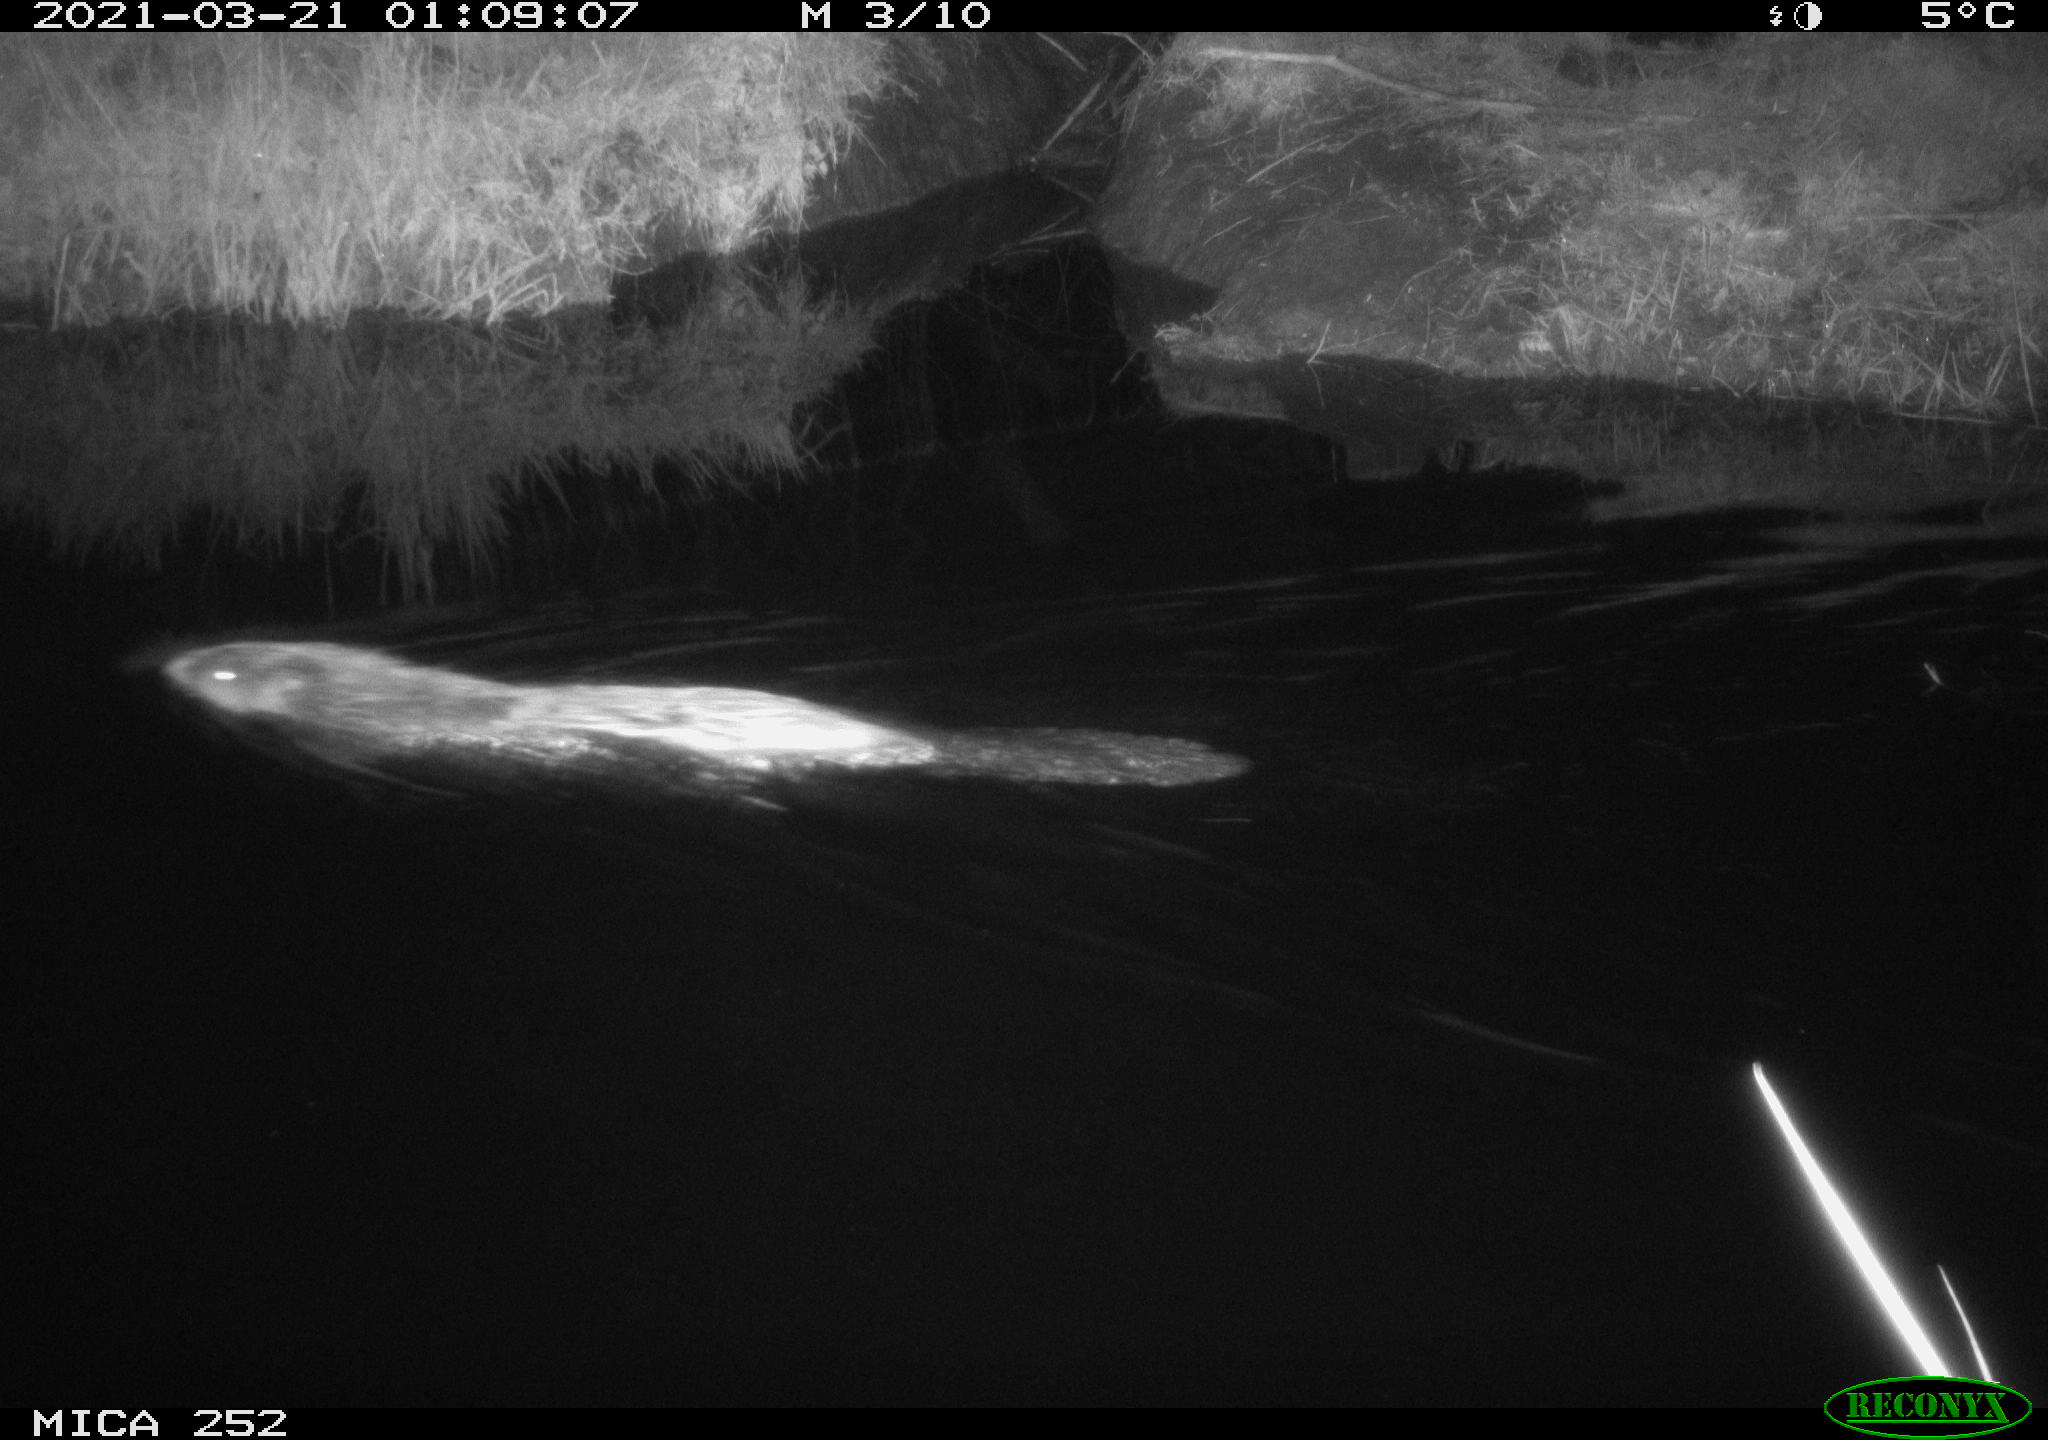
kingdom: Animalia
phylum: Chordata
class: Mammalia
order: Rodentia
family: Castoridae
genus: Castor
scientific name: Castor fiber
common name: Eurasian beaver
